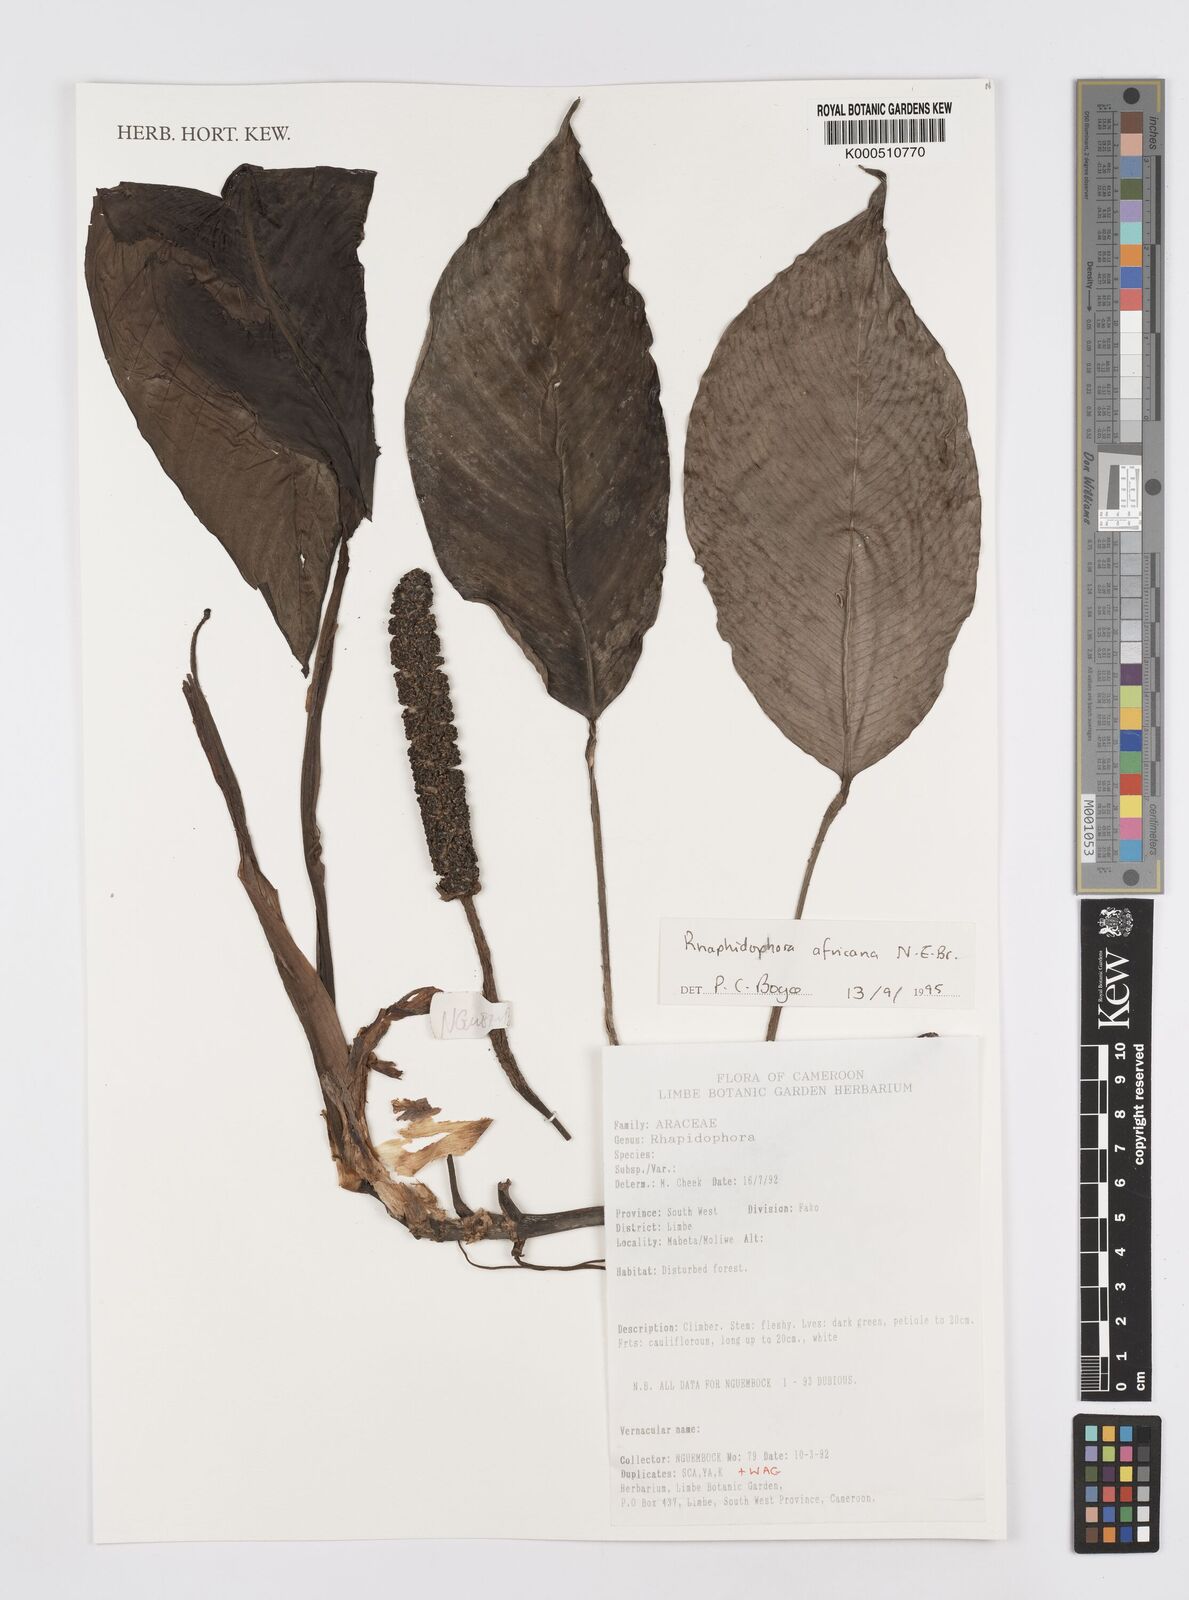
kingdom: Plantae
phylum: Tracheophyta
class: Liliopsida
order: Alismatales
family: Araceae
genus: Rhaphidophora
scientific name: Rhaphidophora africana
